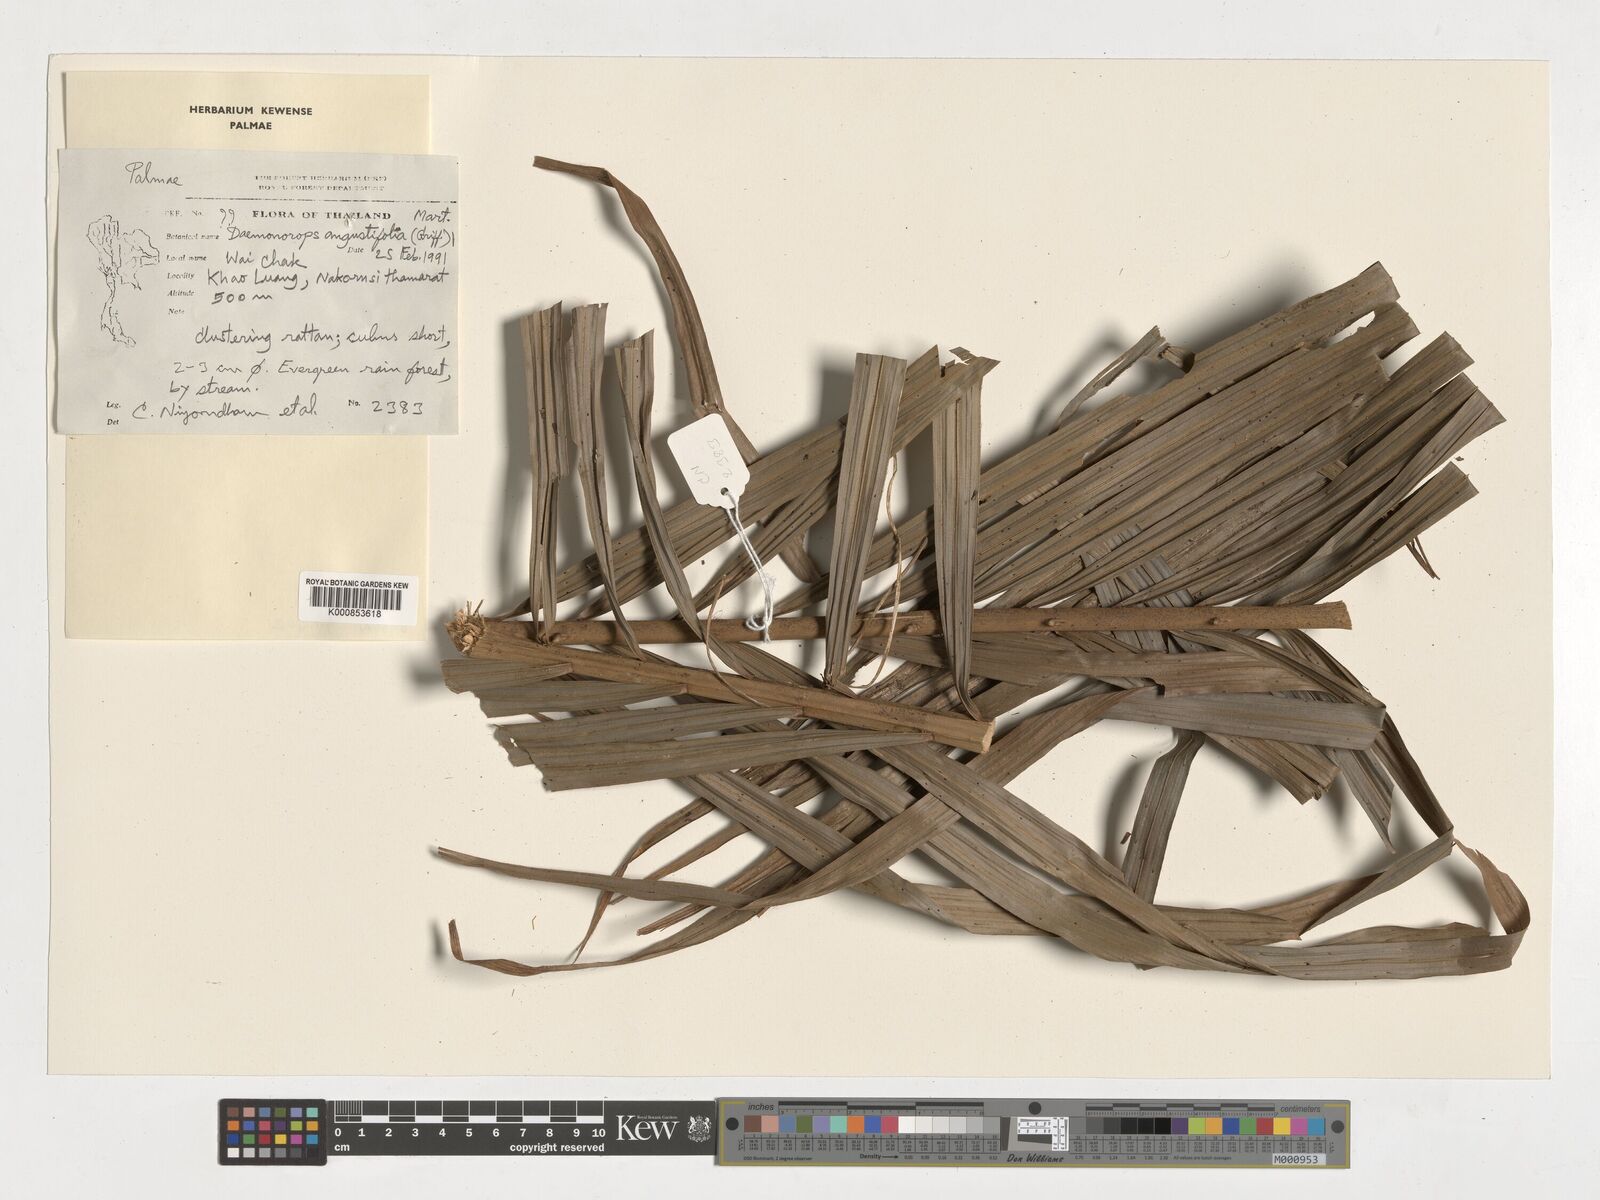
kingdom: Plantae
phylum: Tracheophyta
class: Liliopsida
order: Arecales
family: Arecaceae
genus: Calamus
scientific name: Calamus melanochaetes
